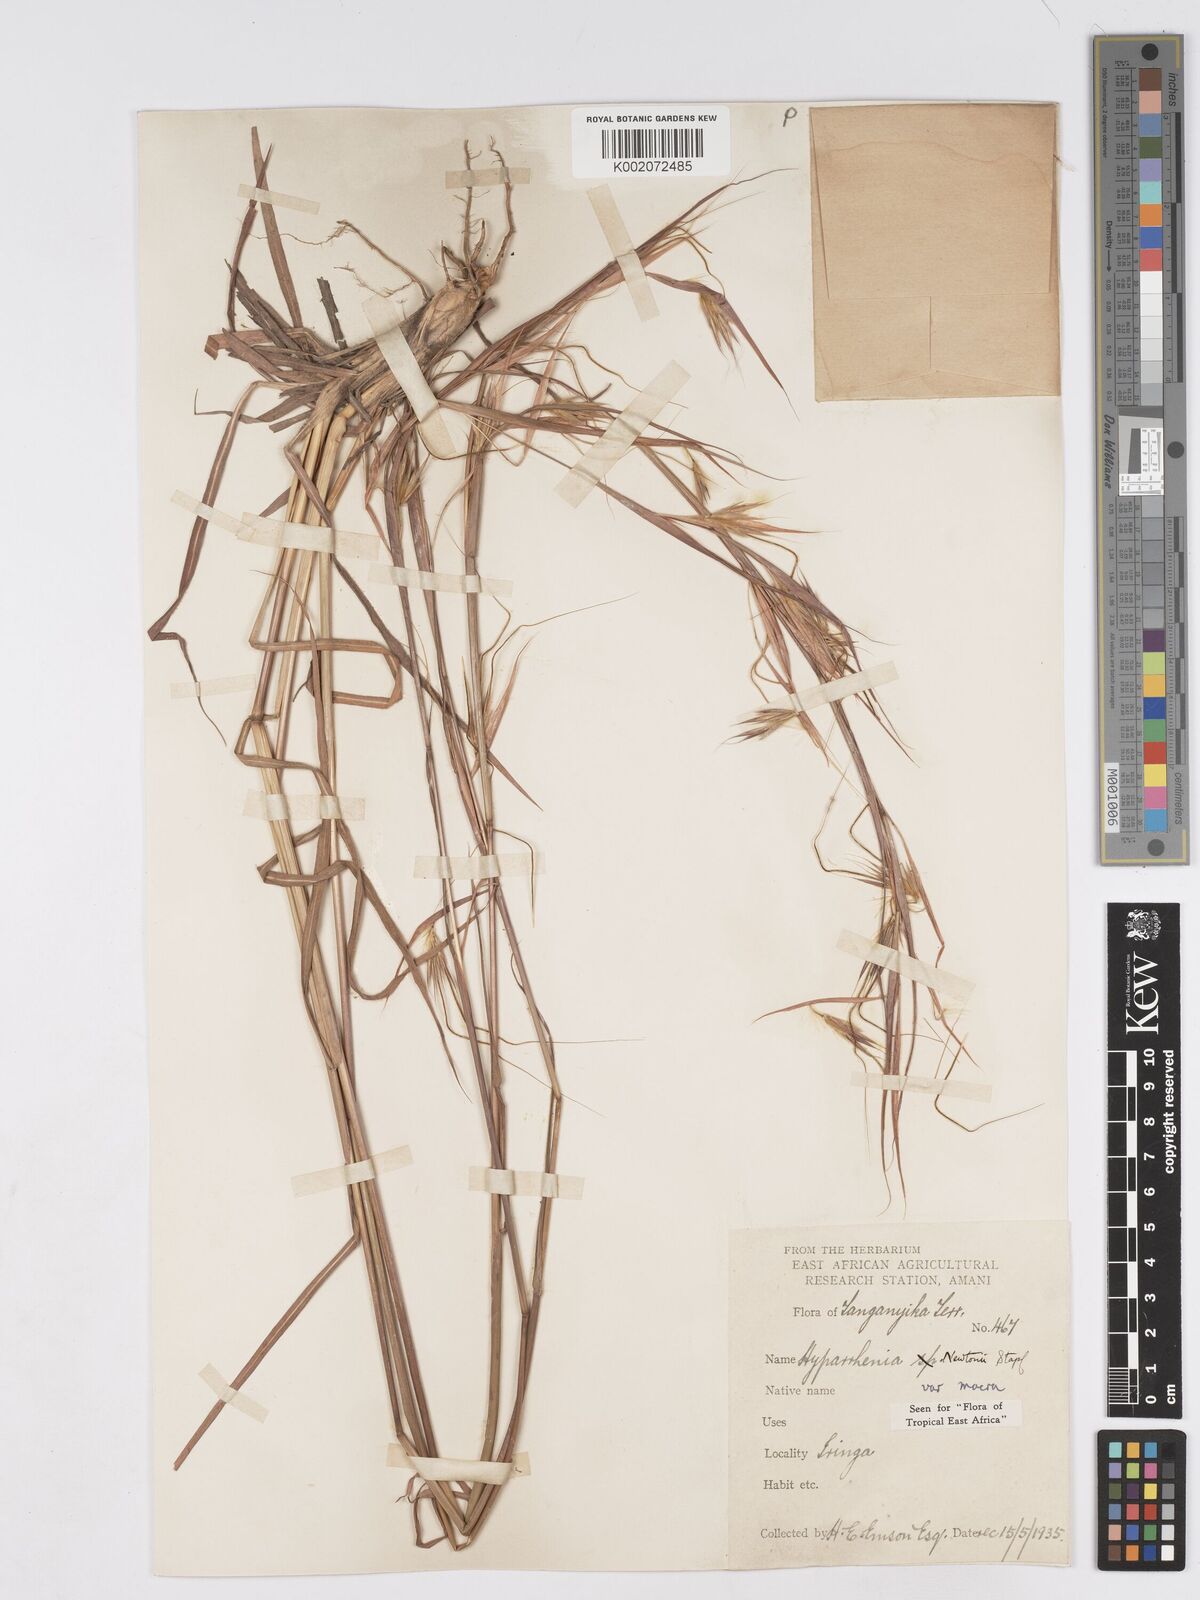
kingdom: Plantae
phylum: Tracheophyta
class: Liliopsida
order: Poales
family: Poaceae
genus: Hyparrhenia
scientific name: Hyparrhenia newtonii
